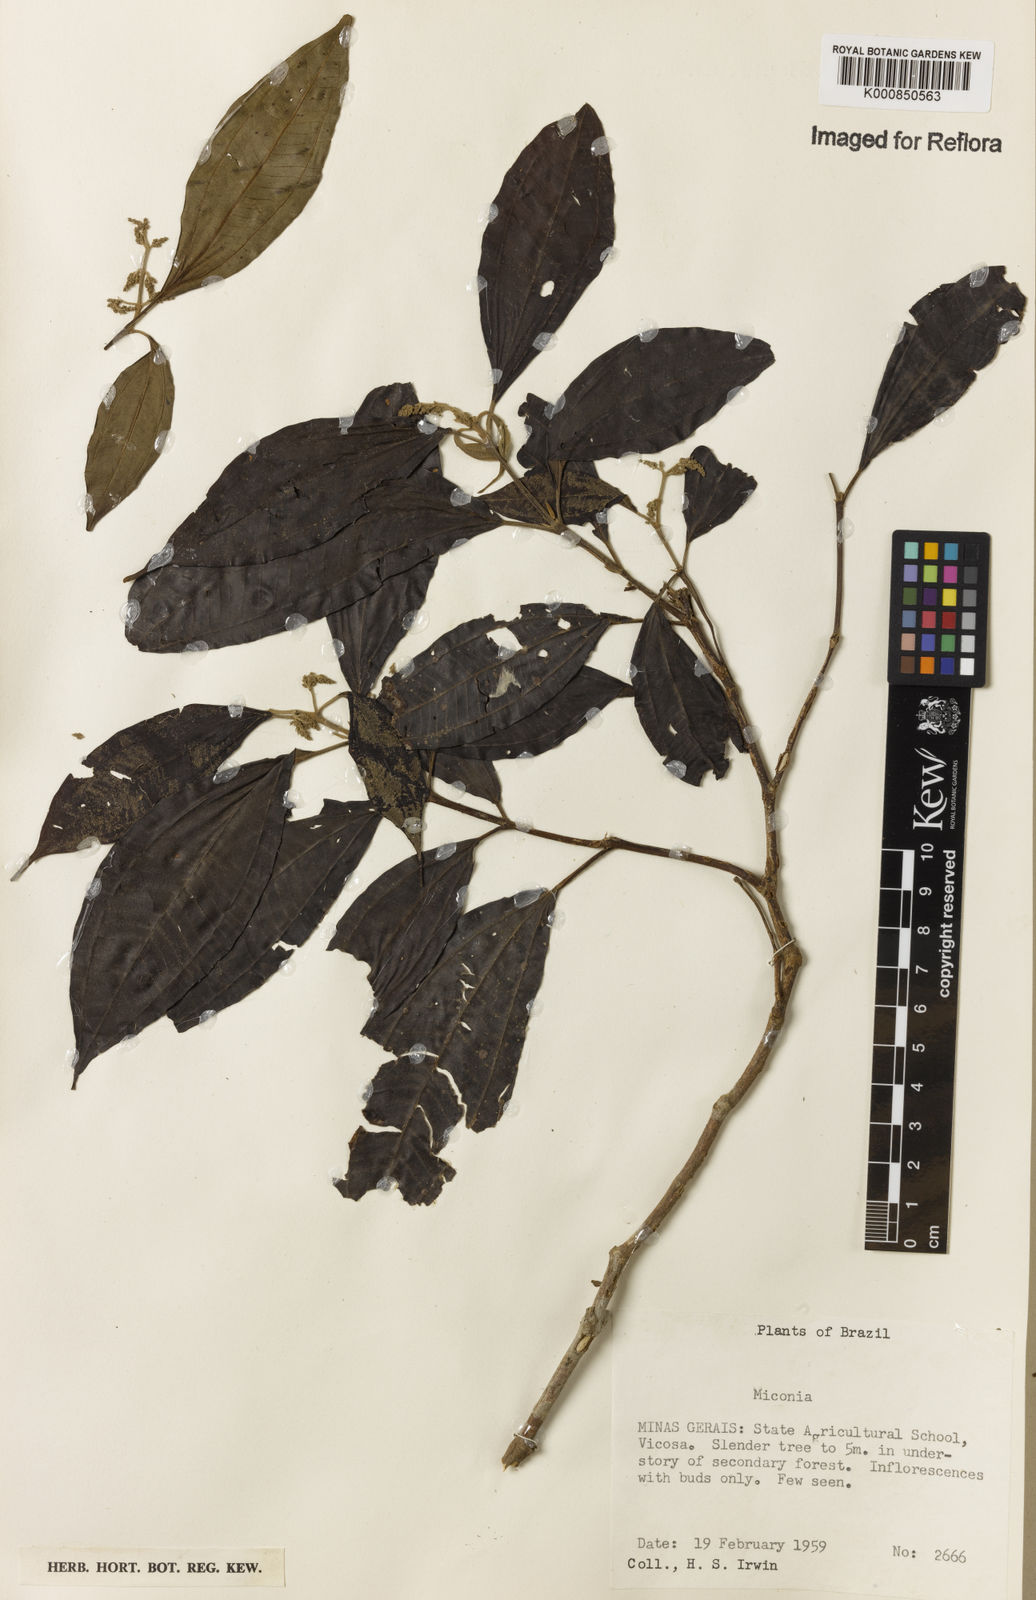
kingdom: Plantae
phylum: Tracheophyta
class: Magnoliopsida
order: Myrtales
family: Melastomataceae
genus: Miconia
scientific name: Miconia
